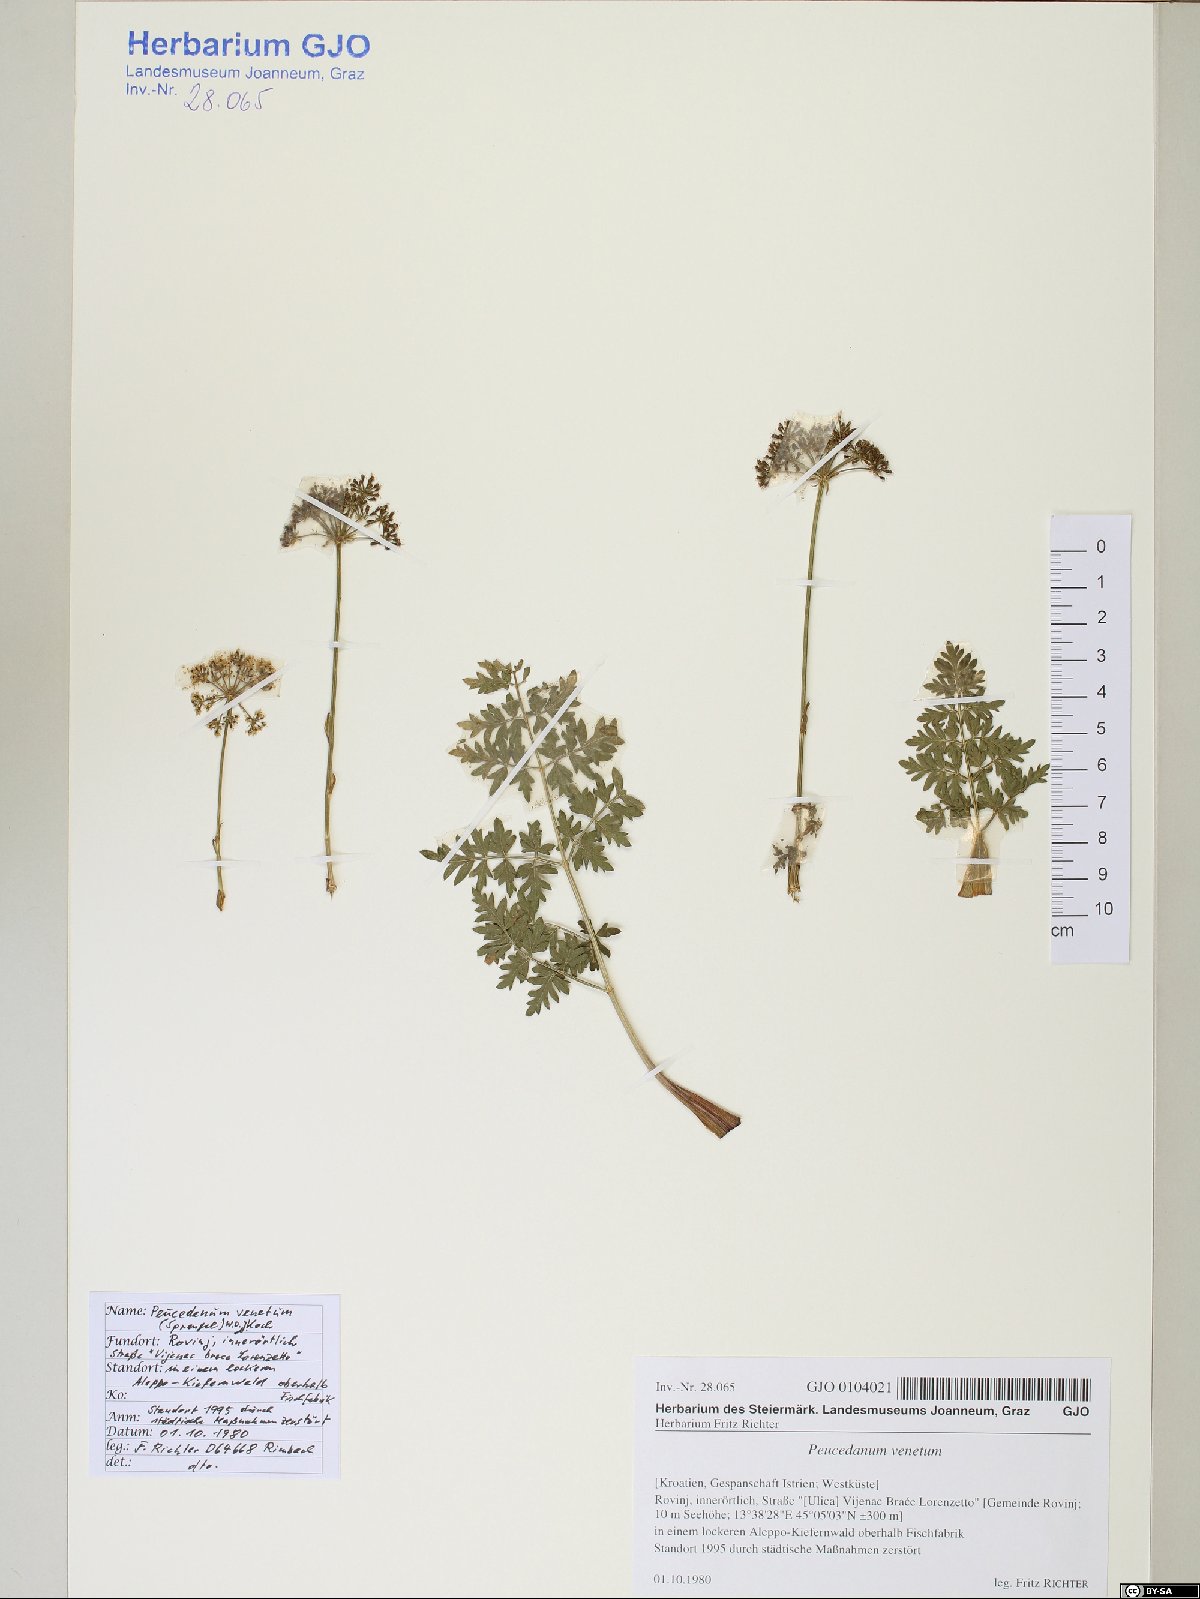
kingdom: Plantae
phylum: Tracheophyta
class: Magnoliopsida
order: Apiales
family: Apiaceae
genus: Xanthoselinum
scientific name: Xanthoselinum alsaticum
